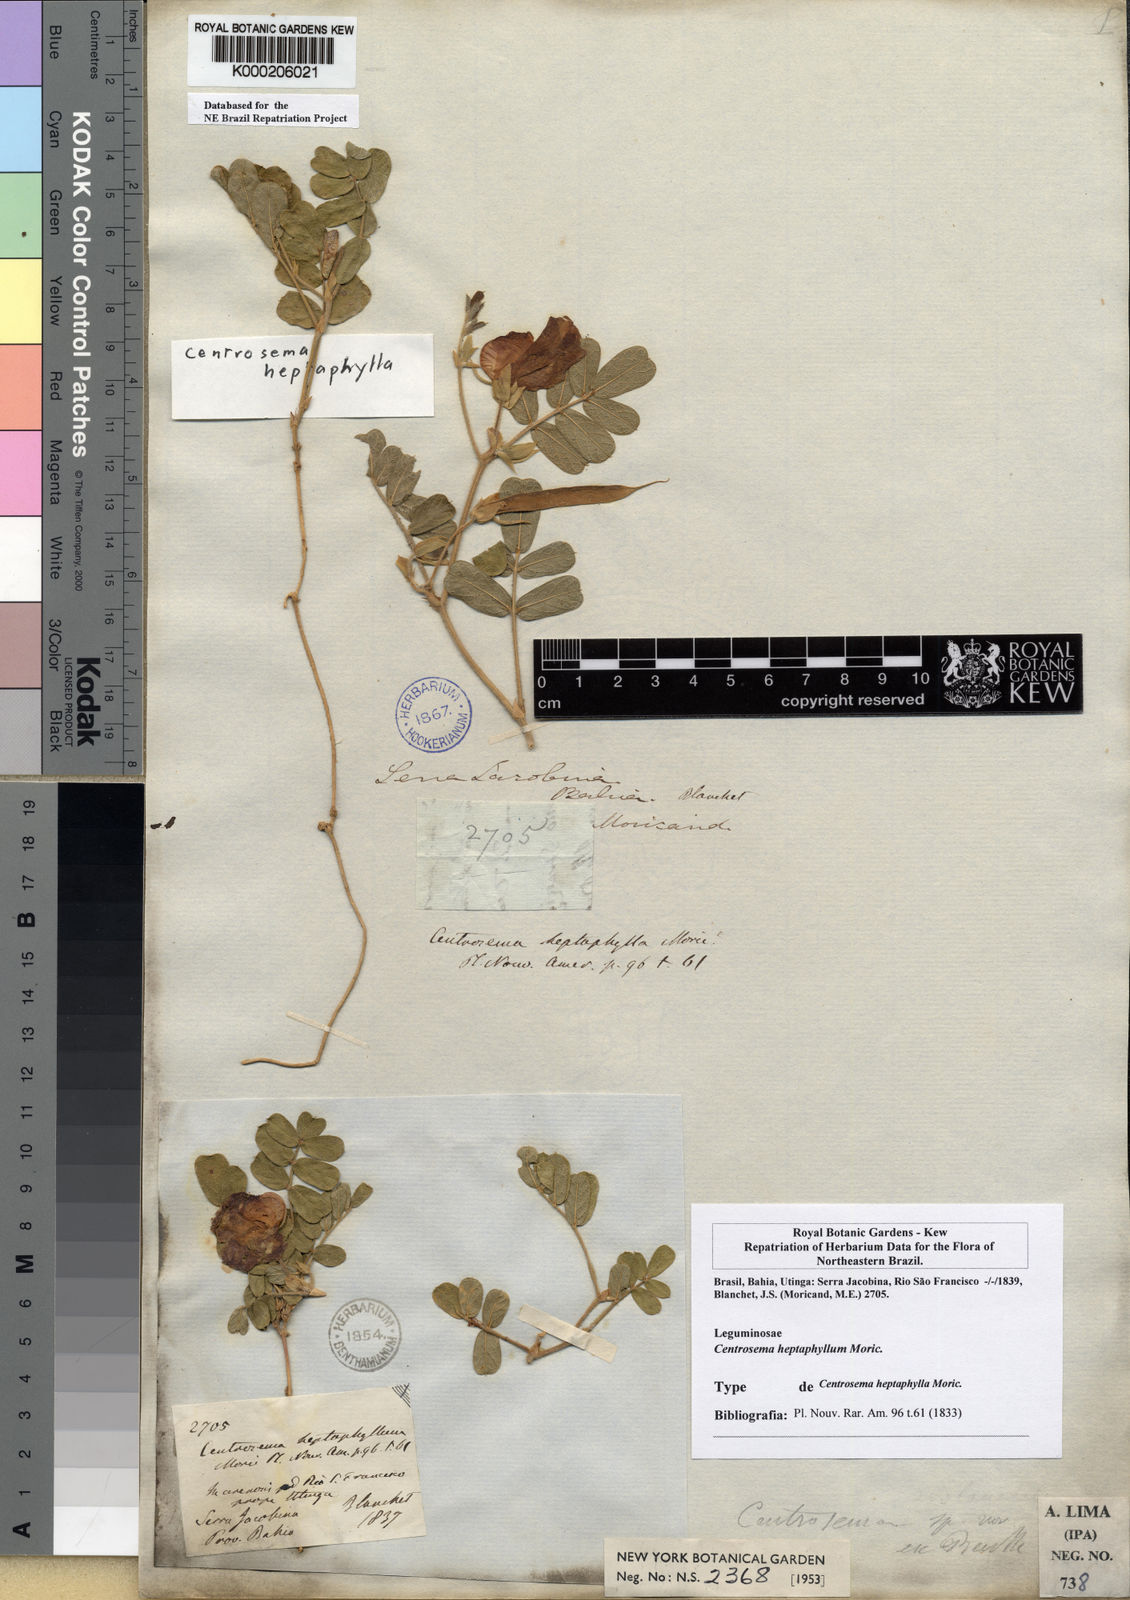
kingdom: Plantae
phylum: Tracheophyta
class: Magnoliopsida
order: Fabales
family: Fabaceae
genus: Centrosema
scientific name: Centrosema heptaphyllum
